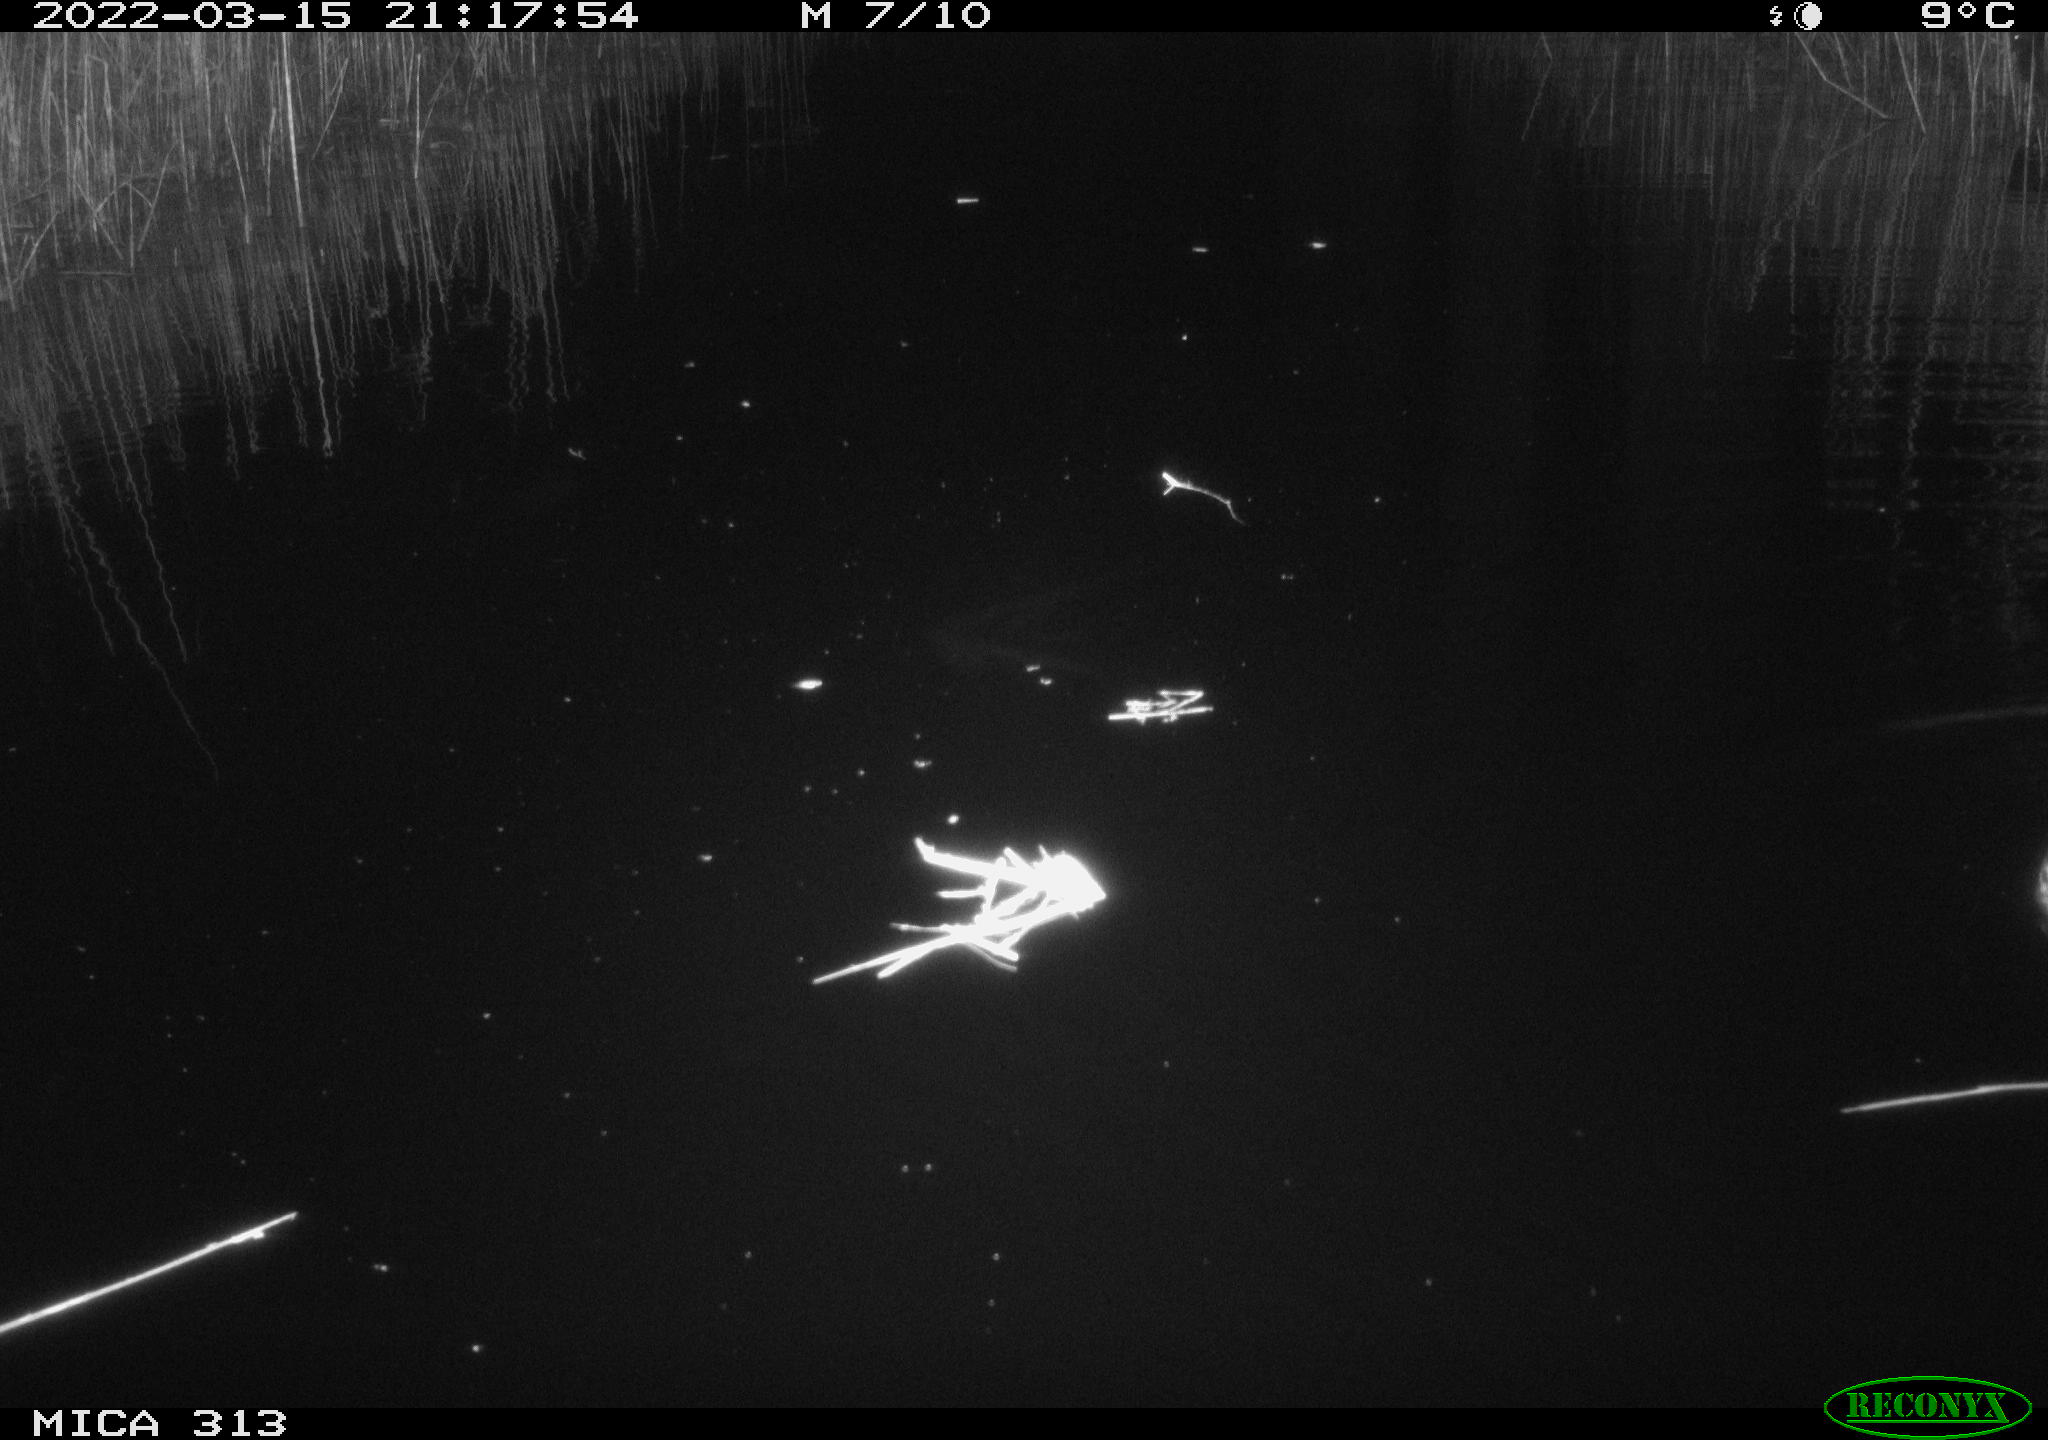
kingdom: Animalia
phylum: Chordata
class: Aves
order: Anseriformes
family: Anatidae
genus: Anas
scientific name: Anas platyrhynchos
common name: Mallard
